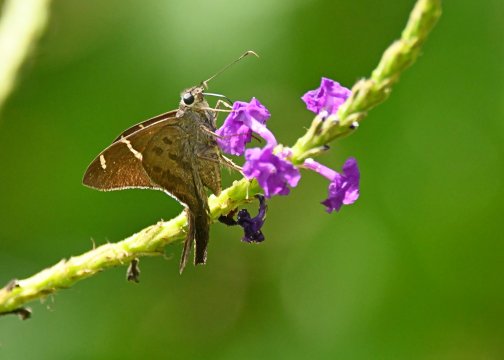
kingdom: Animalia
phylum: Arthropoda
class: Insecta
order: Lepidoptera
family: Hesperiidae
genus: Urbanus
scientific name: Urbanus tanna
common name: Tanna Longtail
